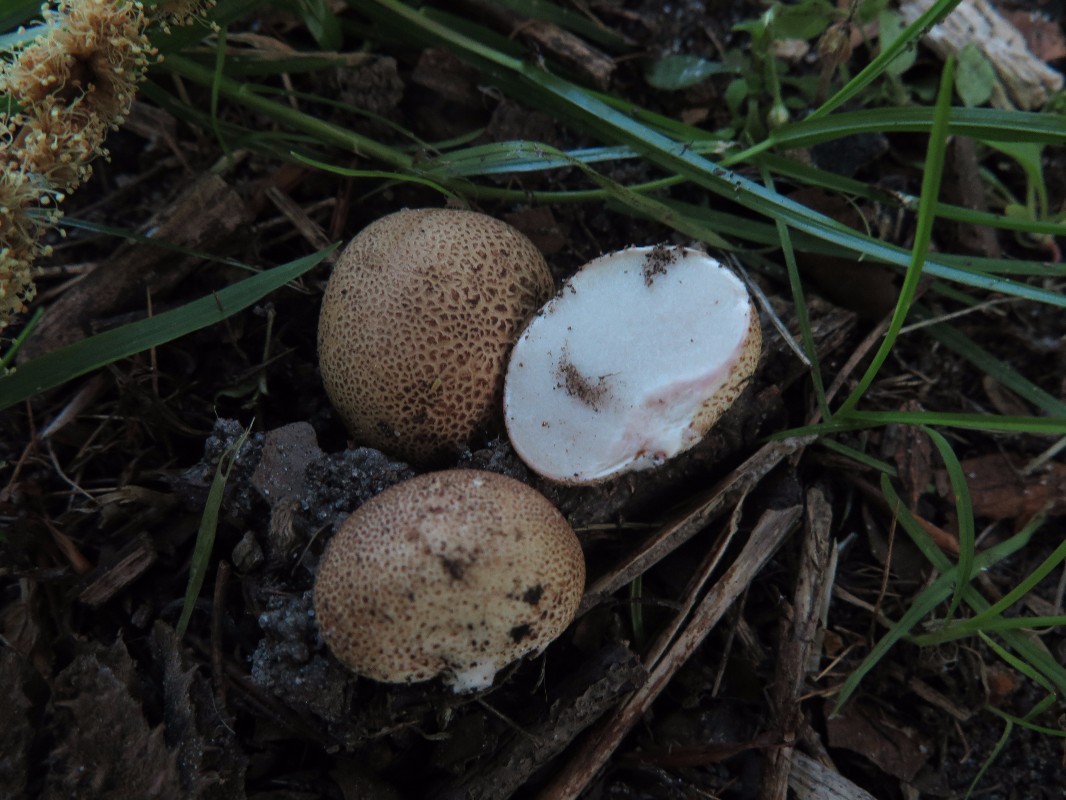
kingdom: Fungi
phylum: Basidiomycota
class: Agaricomycetes
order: Boletales
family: Sclerodermataceae
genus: Scleroderma
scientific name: Scleroderma areolatum
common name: plettet bruskbold
